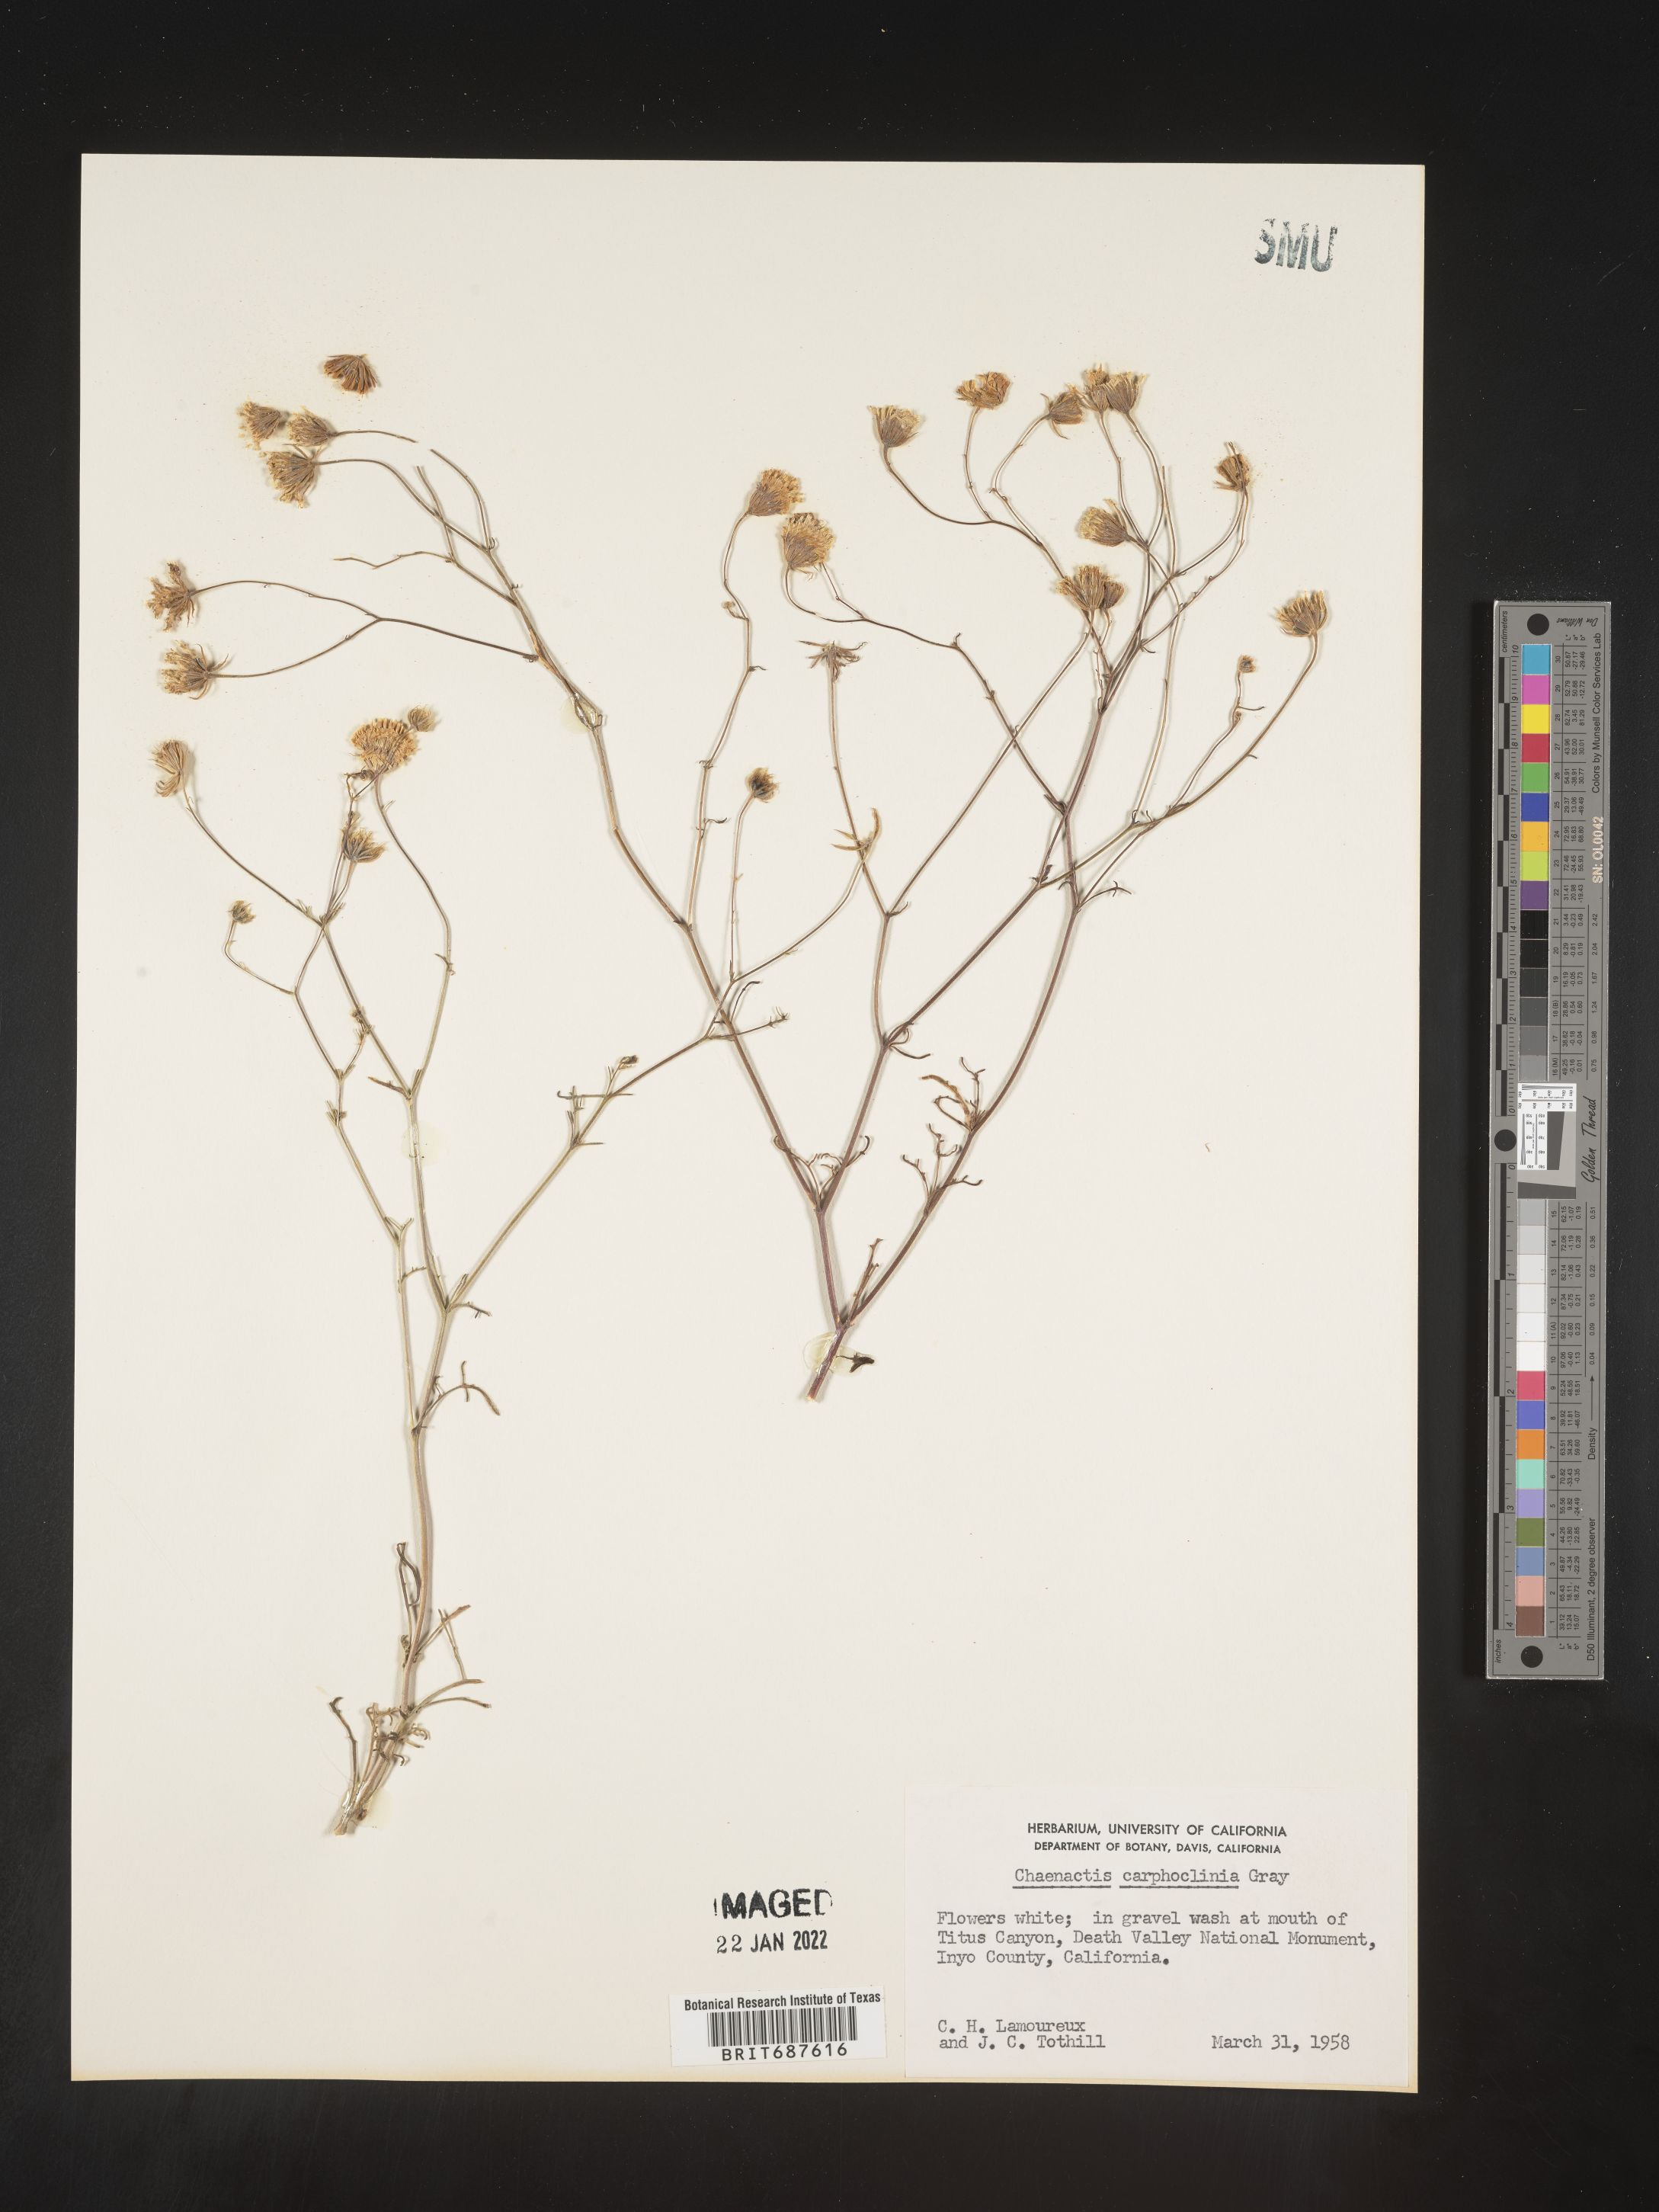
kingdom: Plantae
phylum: Tracheophyta
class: Magnoliopsida
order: Asterales
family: Asteraceae
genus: Chaenactis
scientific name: Chaenactis carphoclinia
